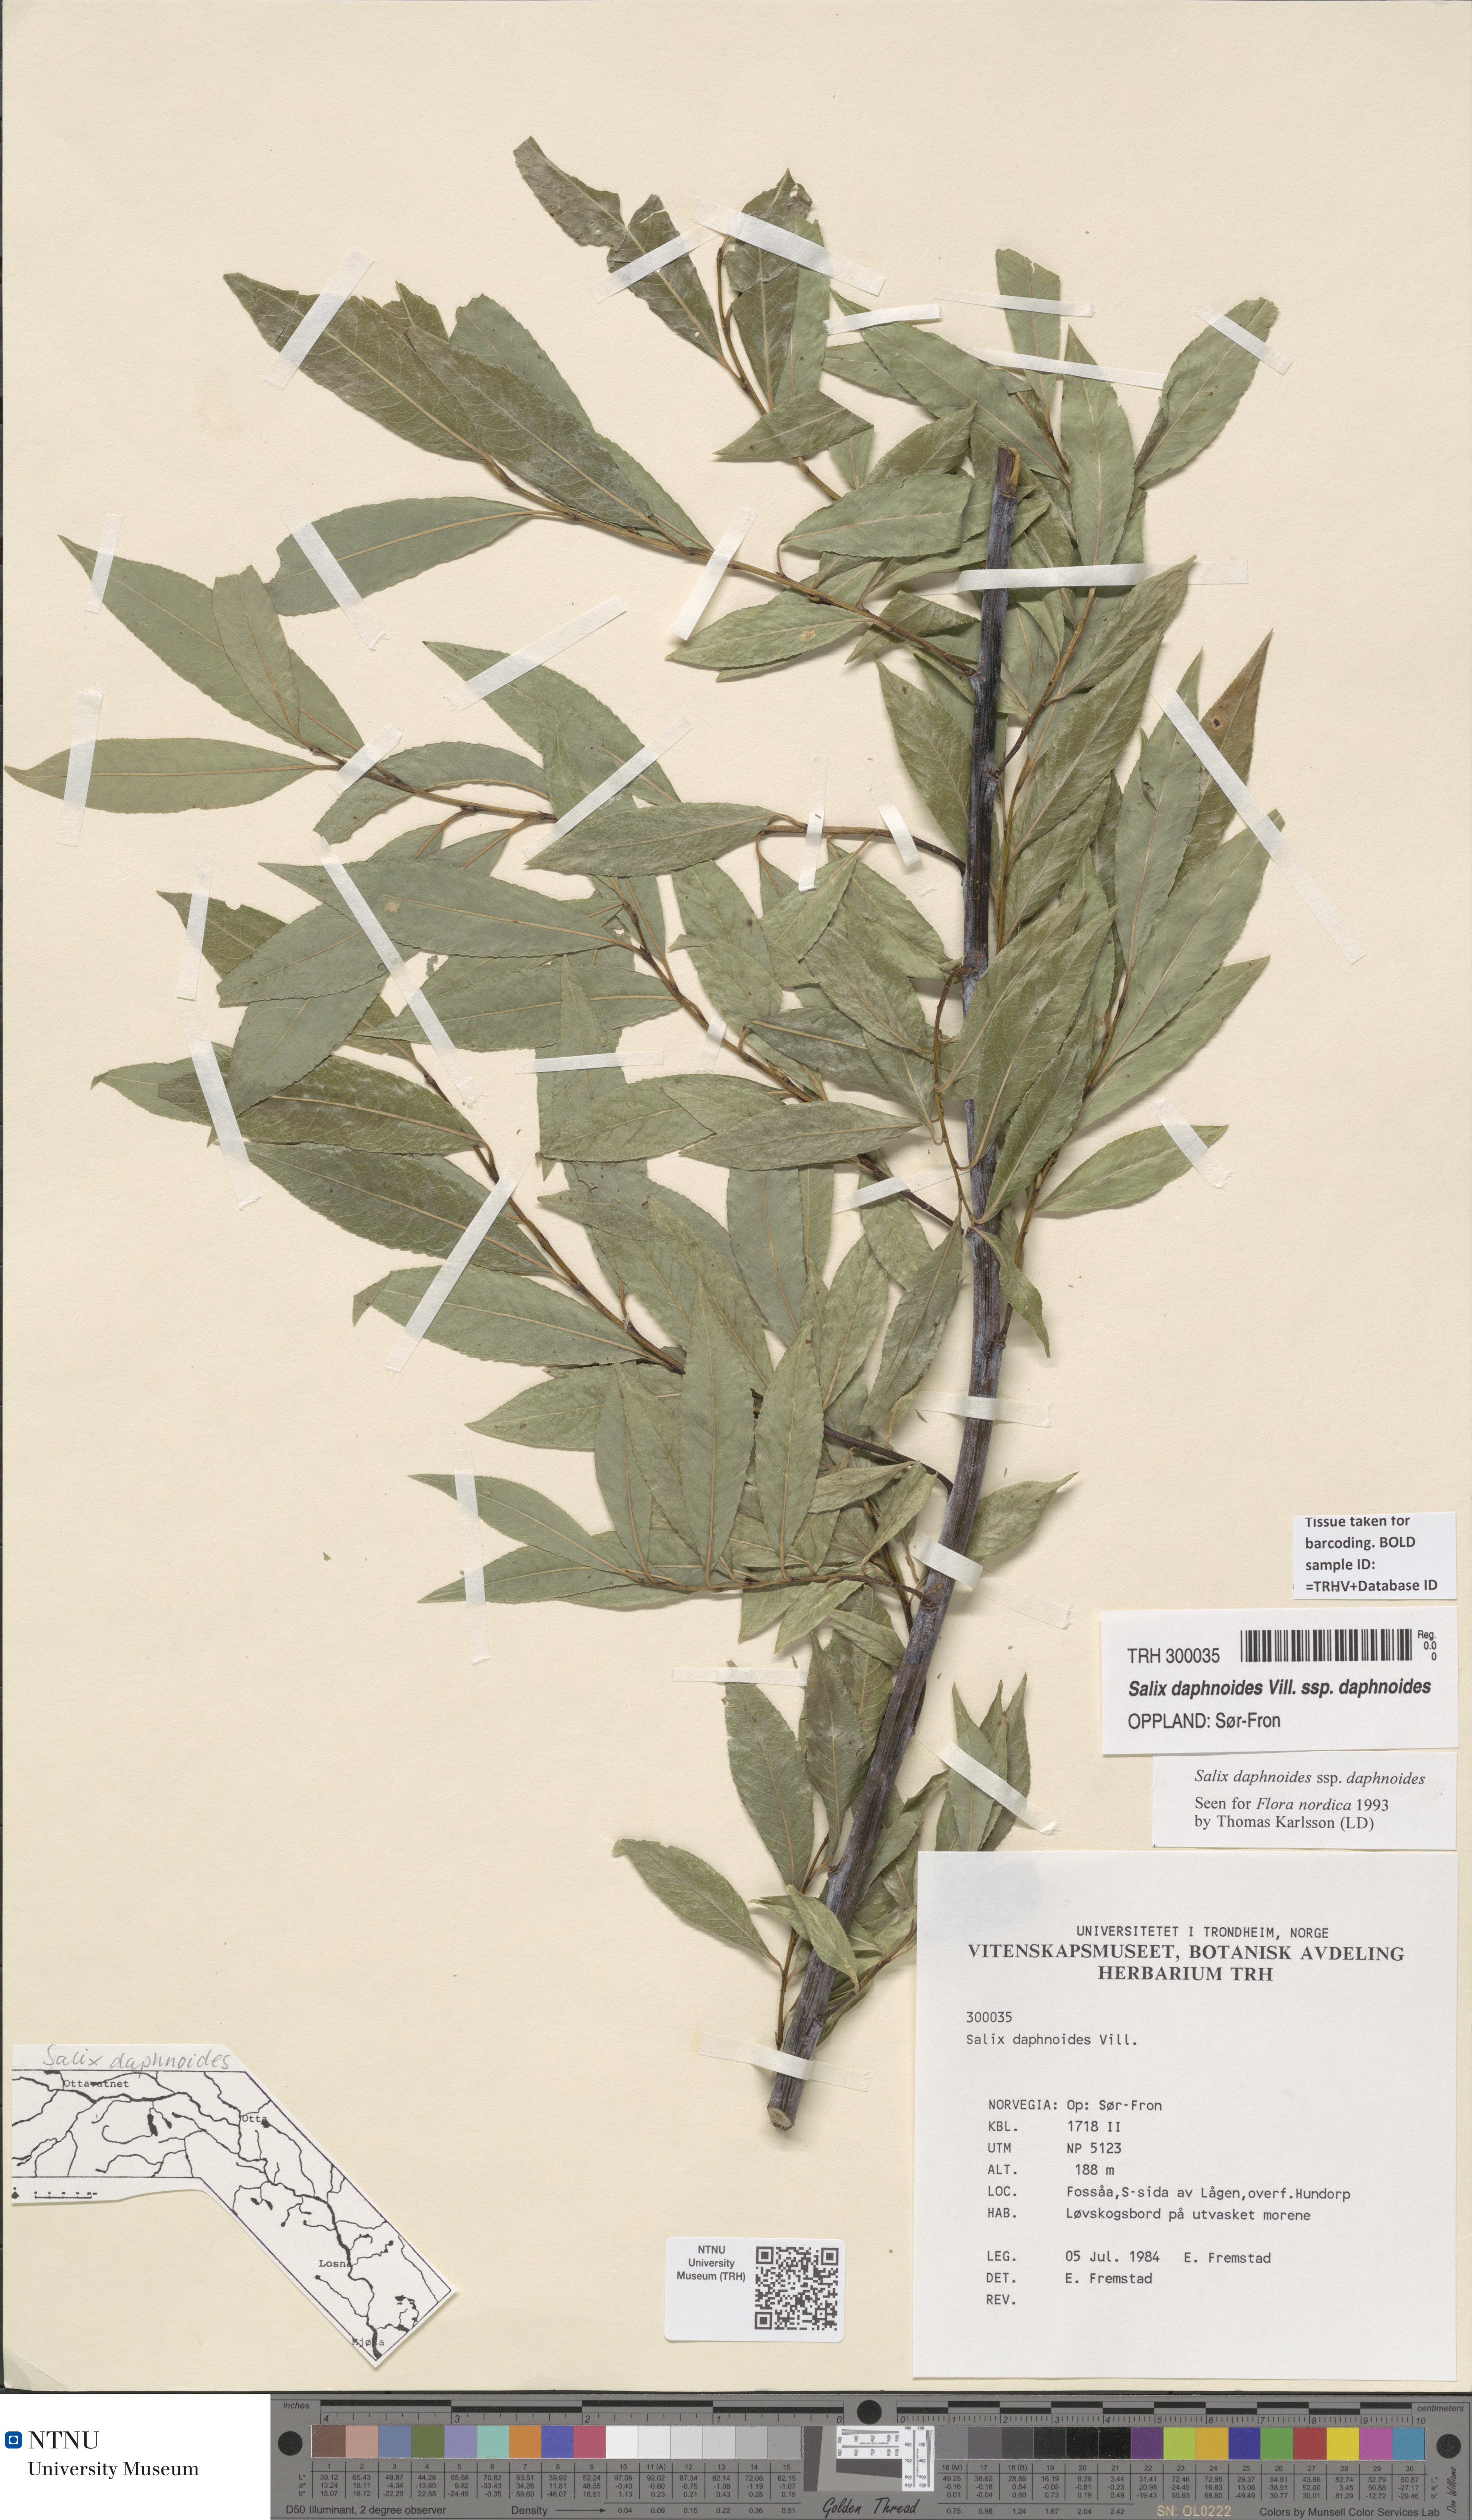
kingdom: Plantae
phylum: Tracheophyta
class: Magnoliopsida
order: Malpighiales
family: Salicaceae
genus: Salix
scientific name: Salix daphnoides
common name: European violet-willow
